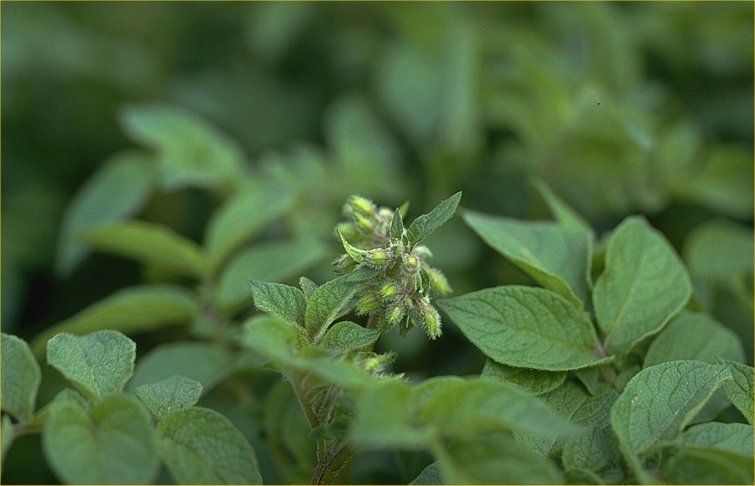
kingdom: Plantae
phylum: Tracheophyta
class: Magnoliopsida
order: Solanales
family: Solanaceae
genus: Solanum
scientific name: Solanum tuberosum
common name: Potato
